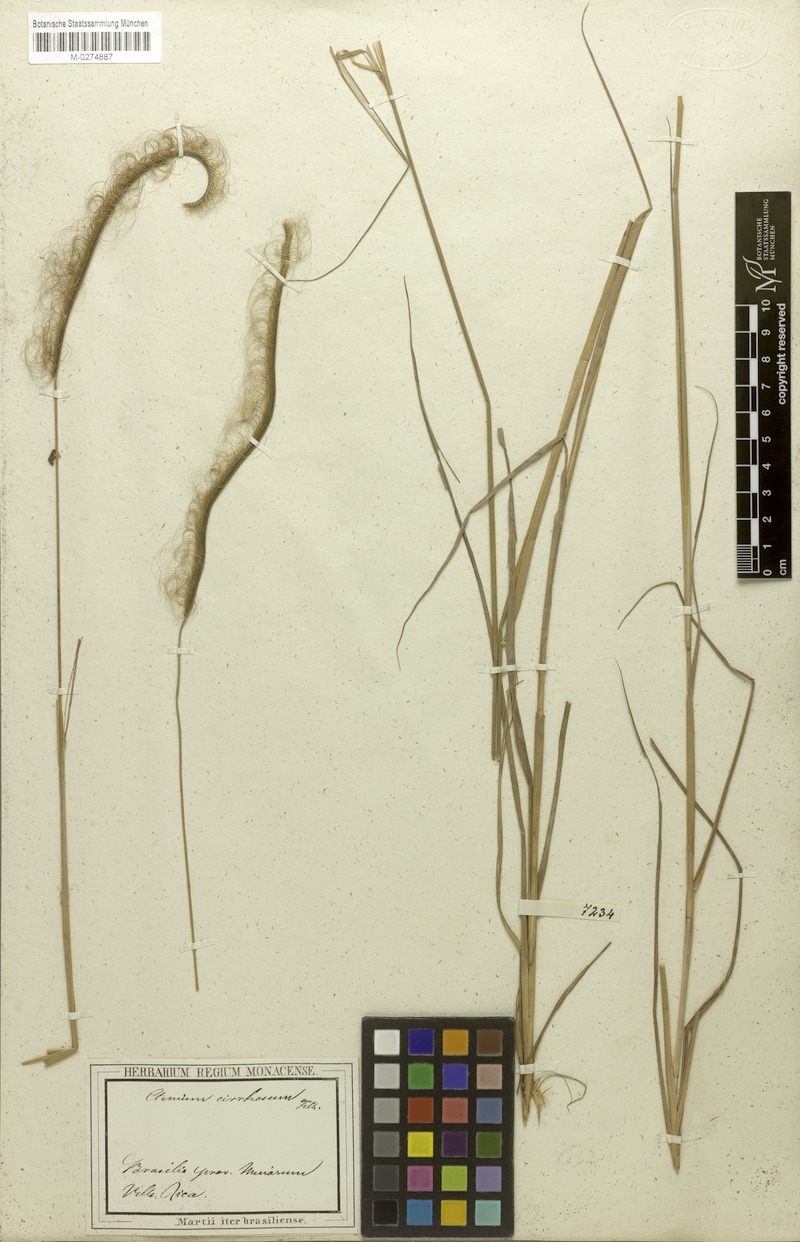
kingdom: Plantae
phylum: Tracheophyta
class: Liliopsida
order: Poales
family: Poaceae
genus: Ctenium
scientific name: Ctenium cirrhosum
